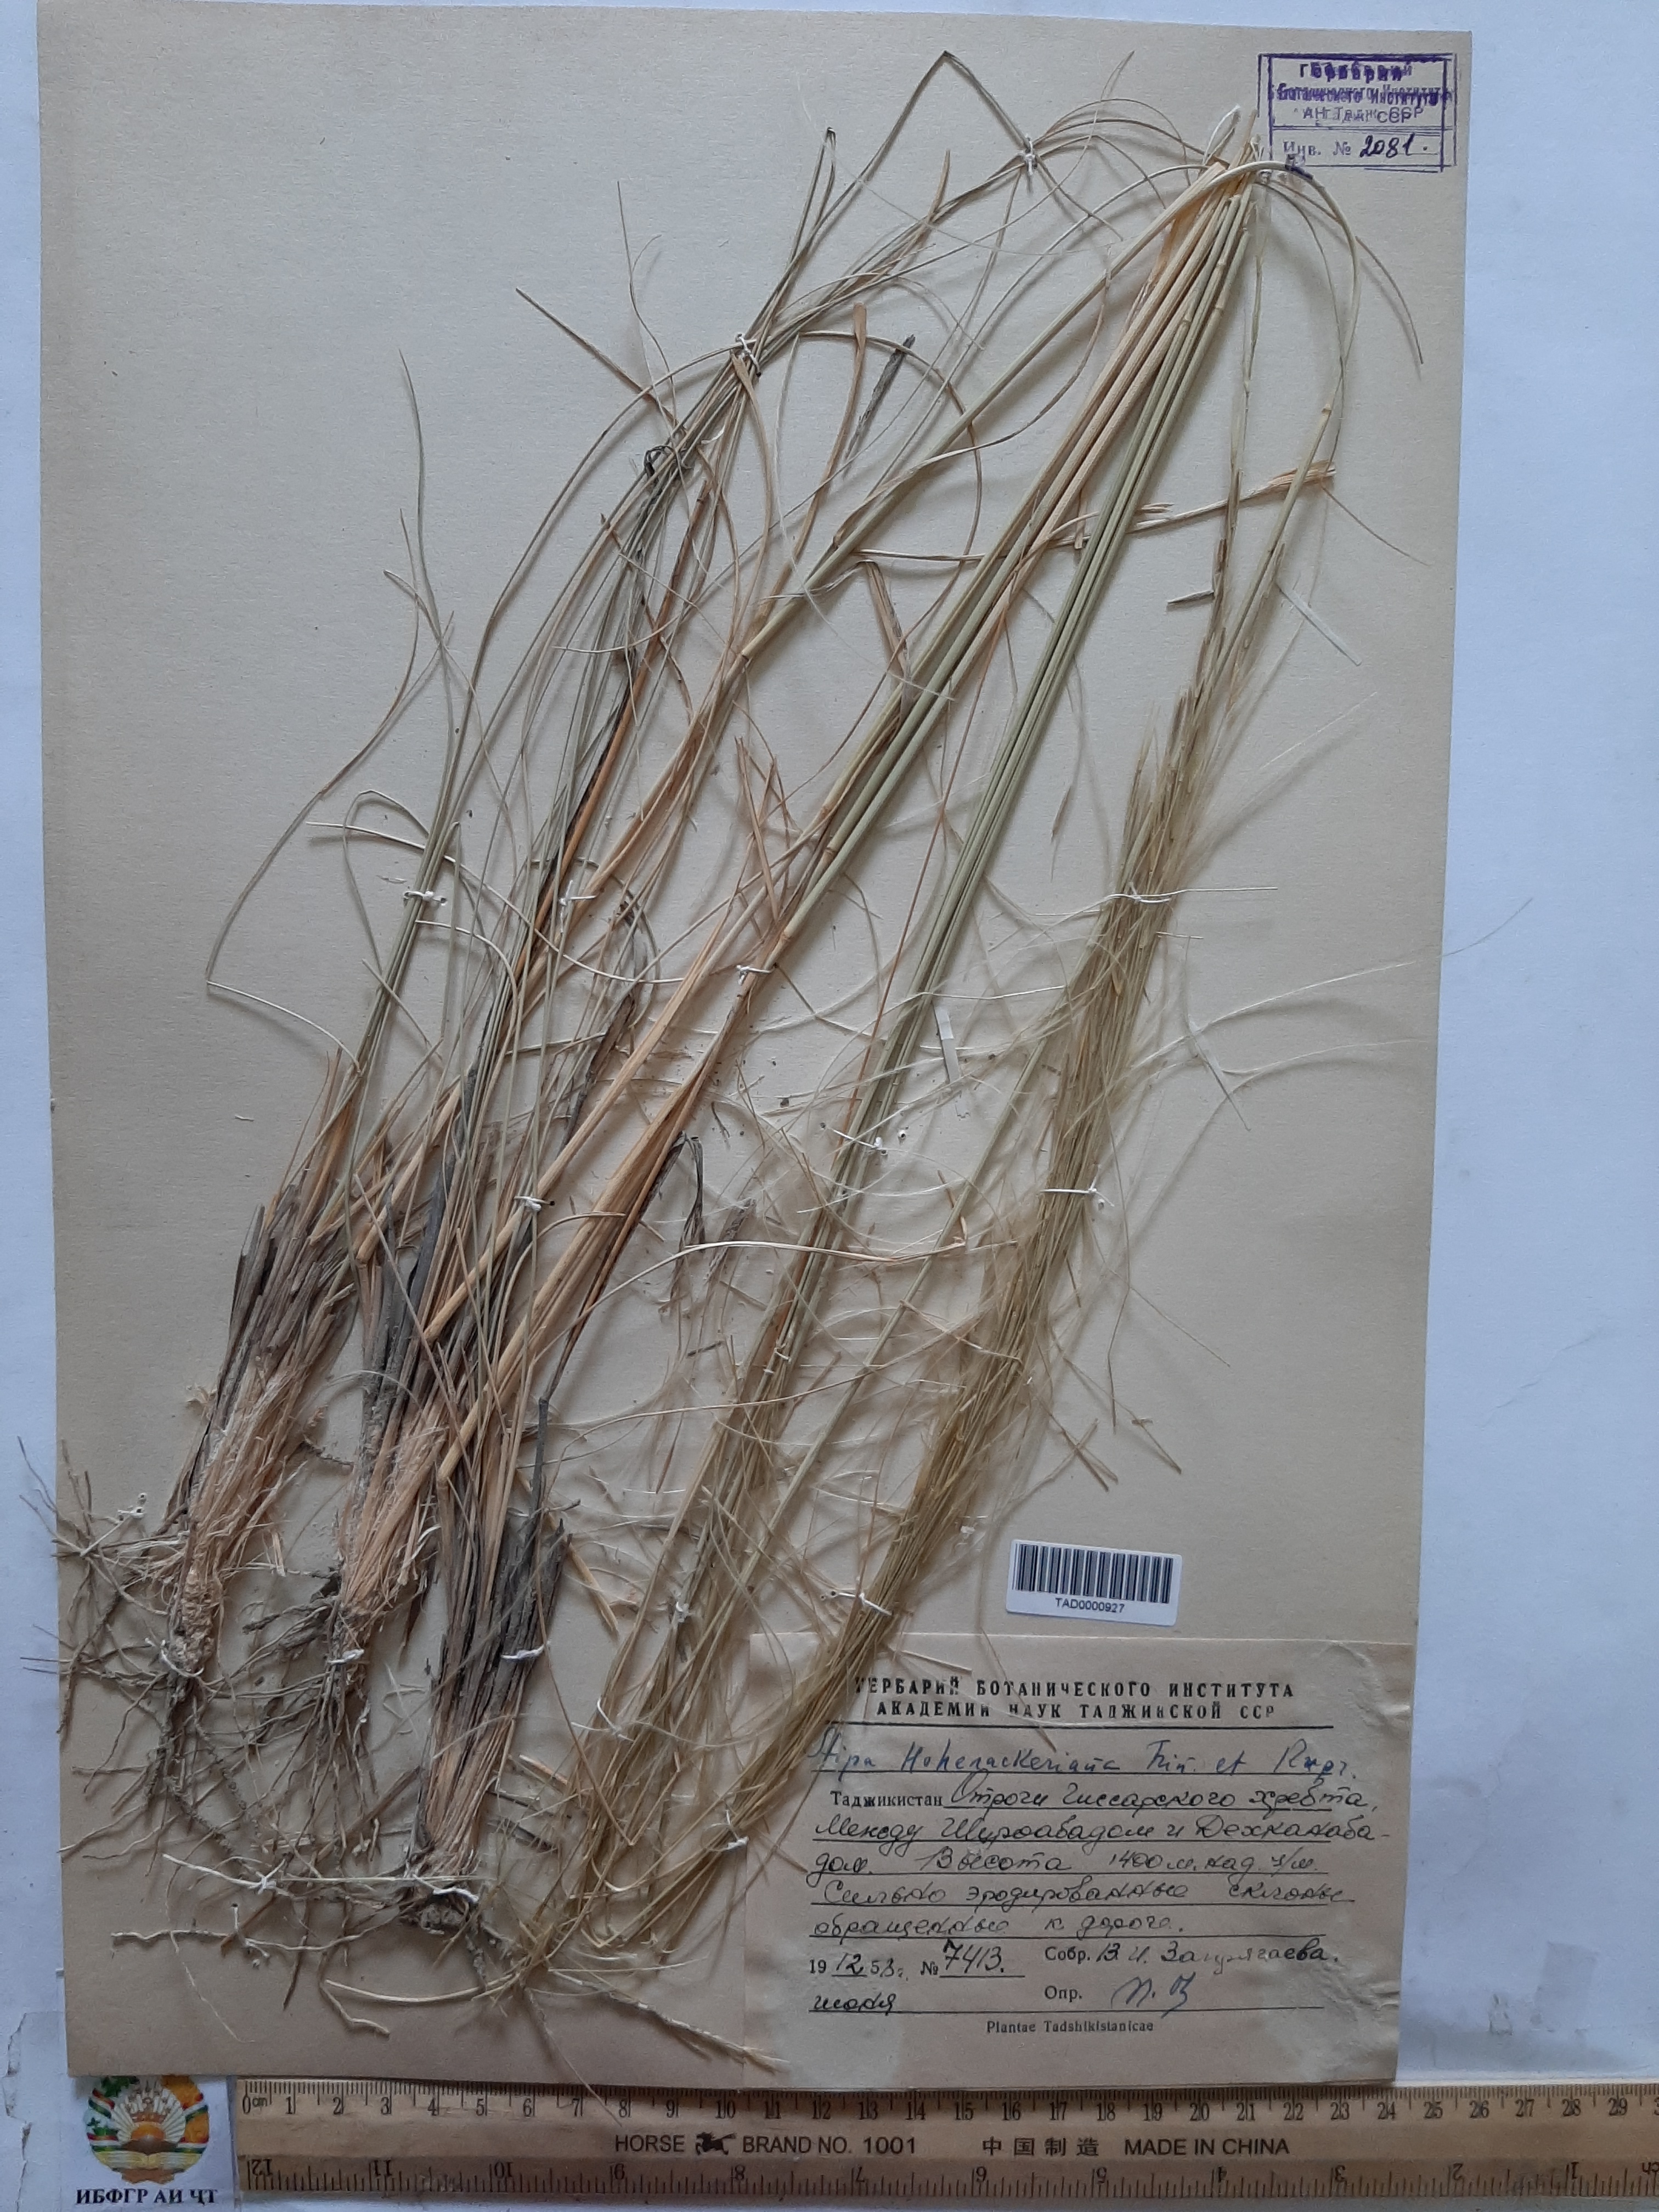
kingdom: Plantae
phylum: Tracheophyta
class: Liliopsida
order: Poales
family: Poaceae
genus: Stipa
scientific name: Stipa hohenackeriana
